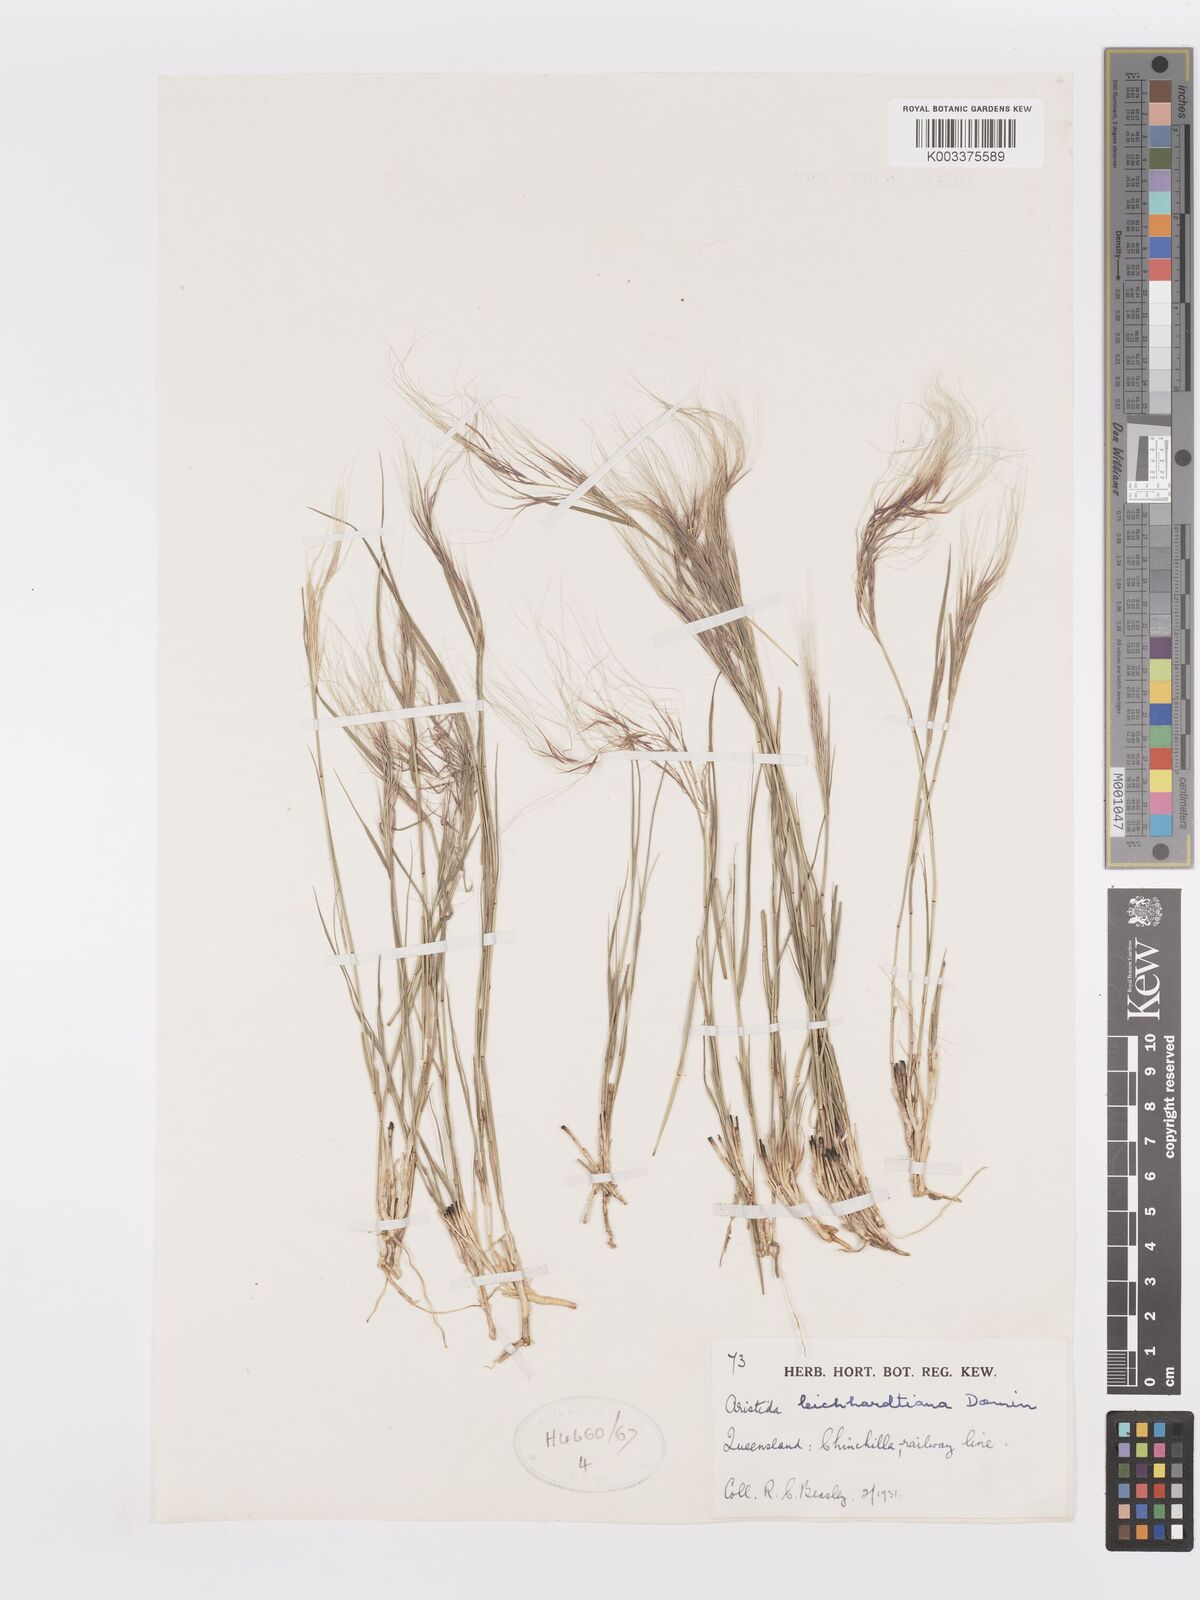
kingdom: Plantae
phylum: Tracheophyta
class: Liliopsida
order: Poales
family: Poaceae
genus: Aristida
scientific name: Aristida leichhardtiana
